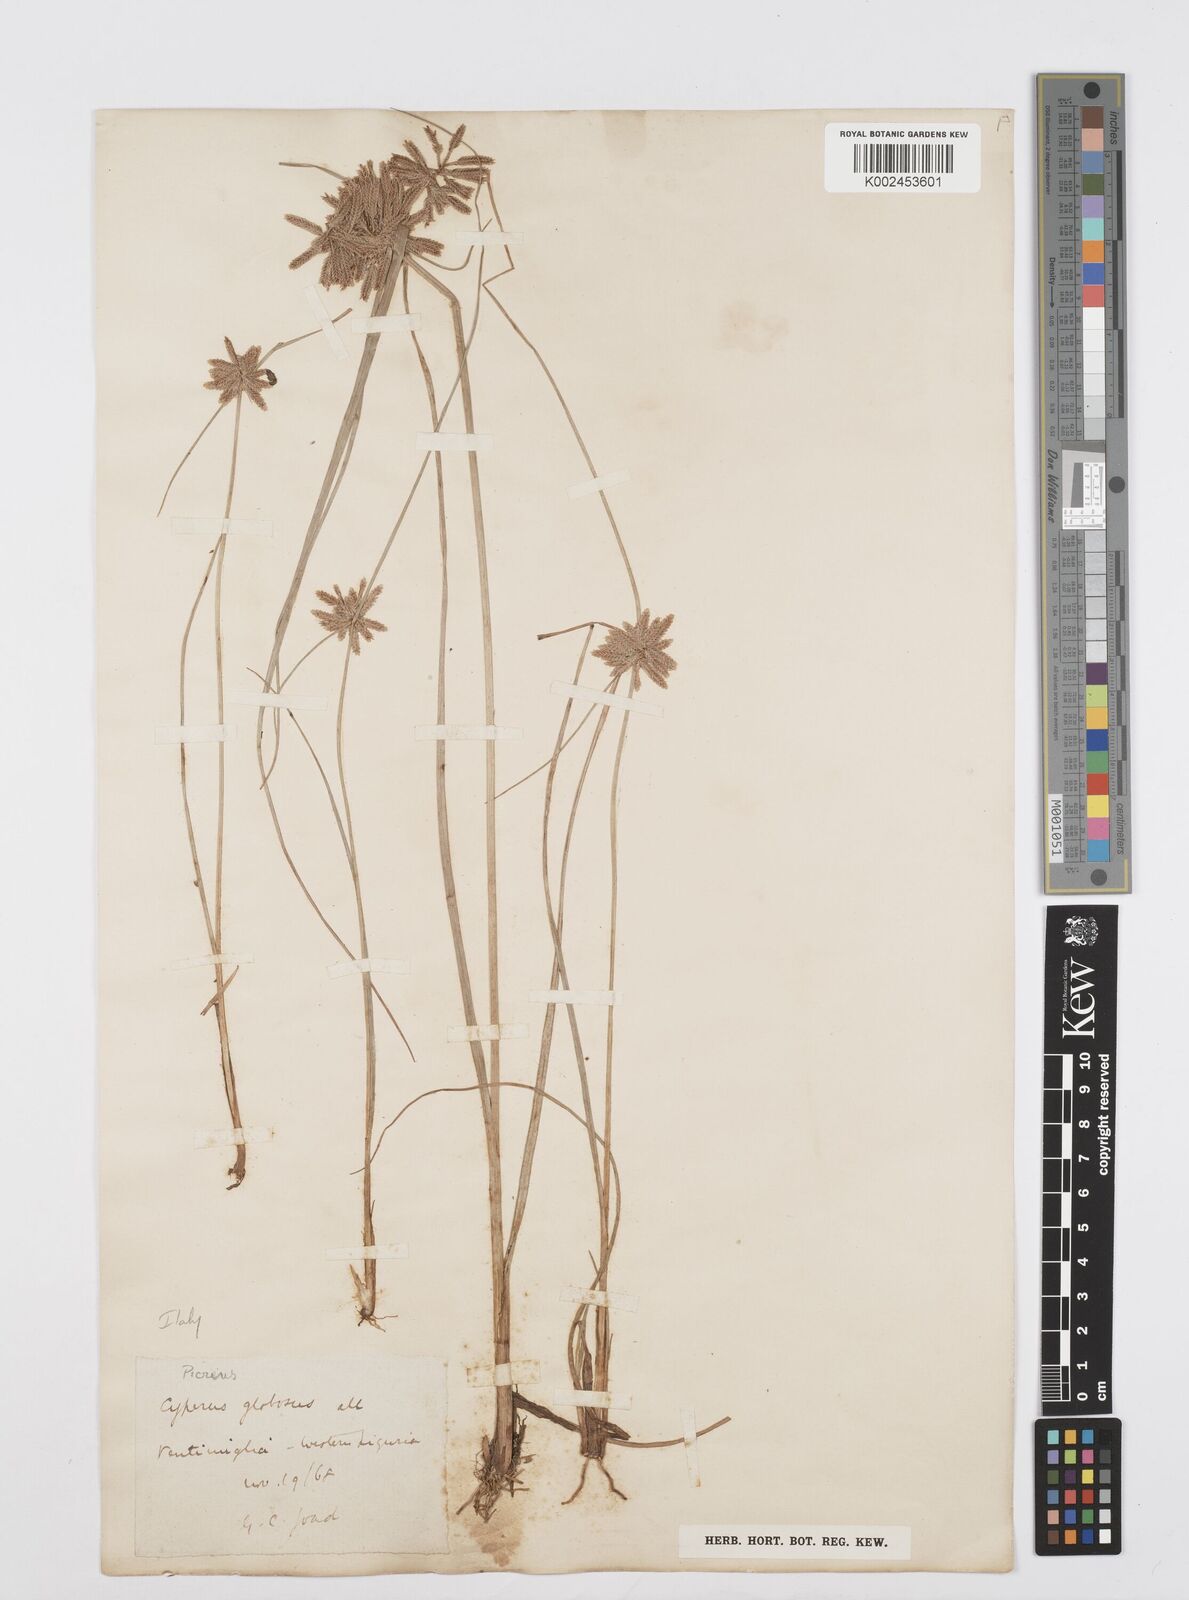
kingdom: Plantae
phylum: Tracheophyta
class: Liliopsida
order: Poales
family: Cyperaceae
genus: Cyperus
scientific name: Cyperus flavidus
